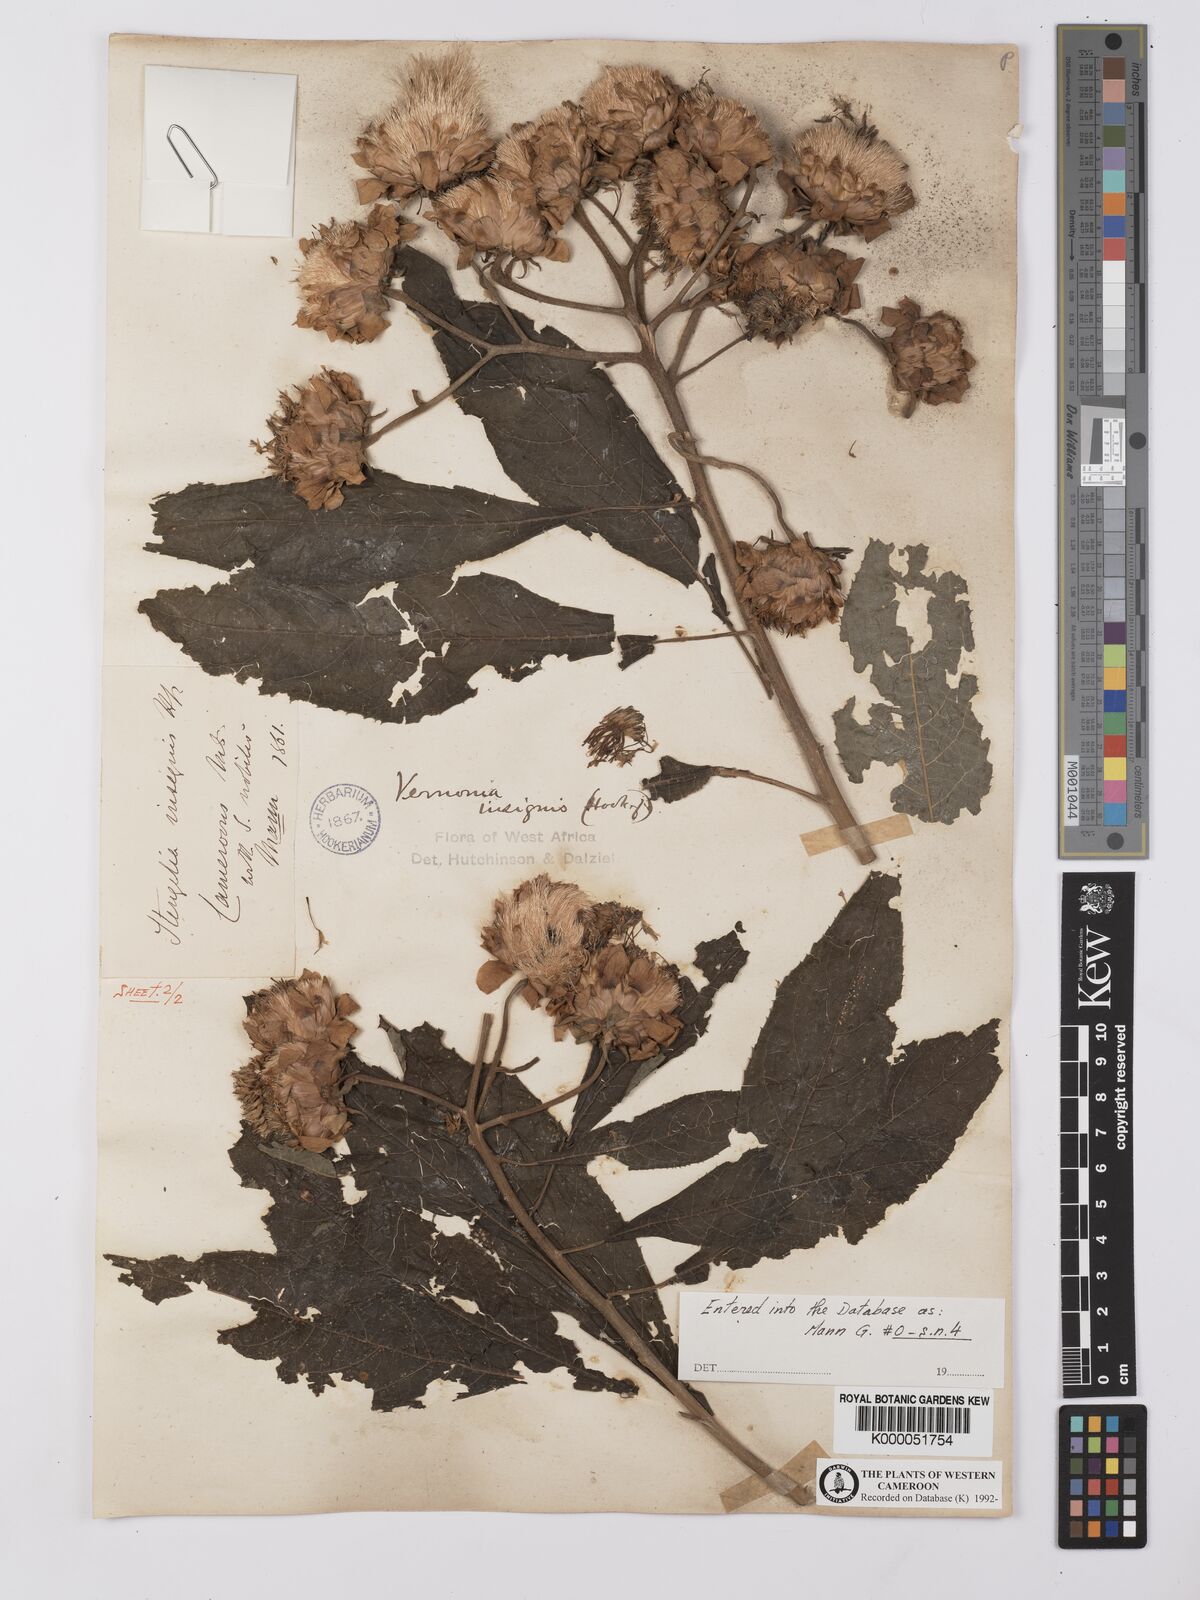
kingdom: Plantae
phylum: Tracheophyta
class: Magnoliopsida
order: Asterales
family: Asteraceae
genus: Baccharoides
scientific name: Baccharoides hymenolepis
